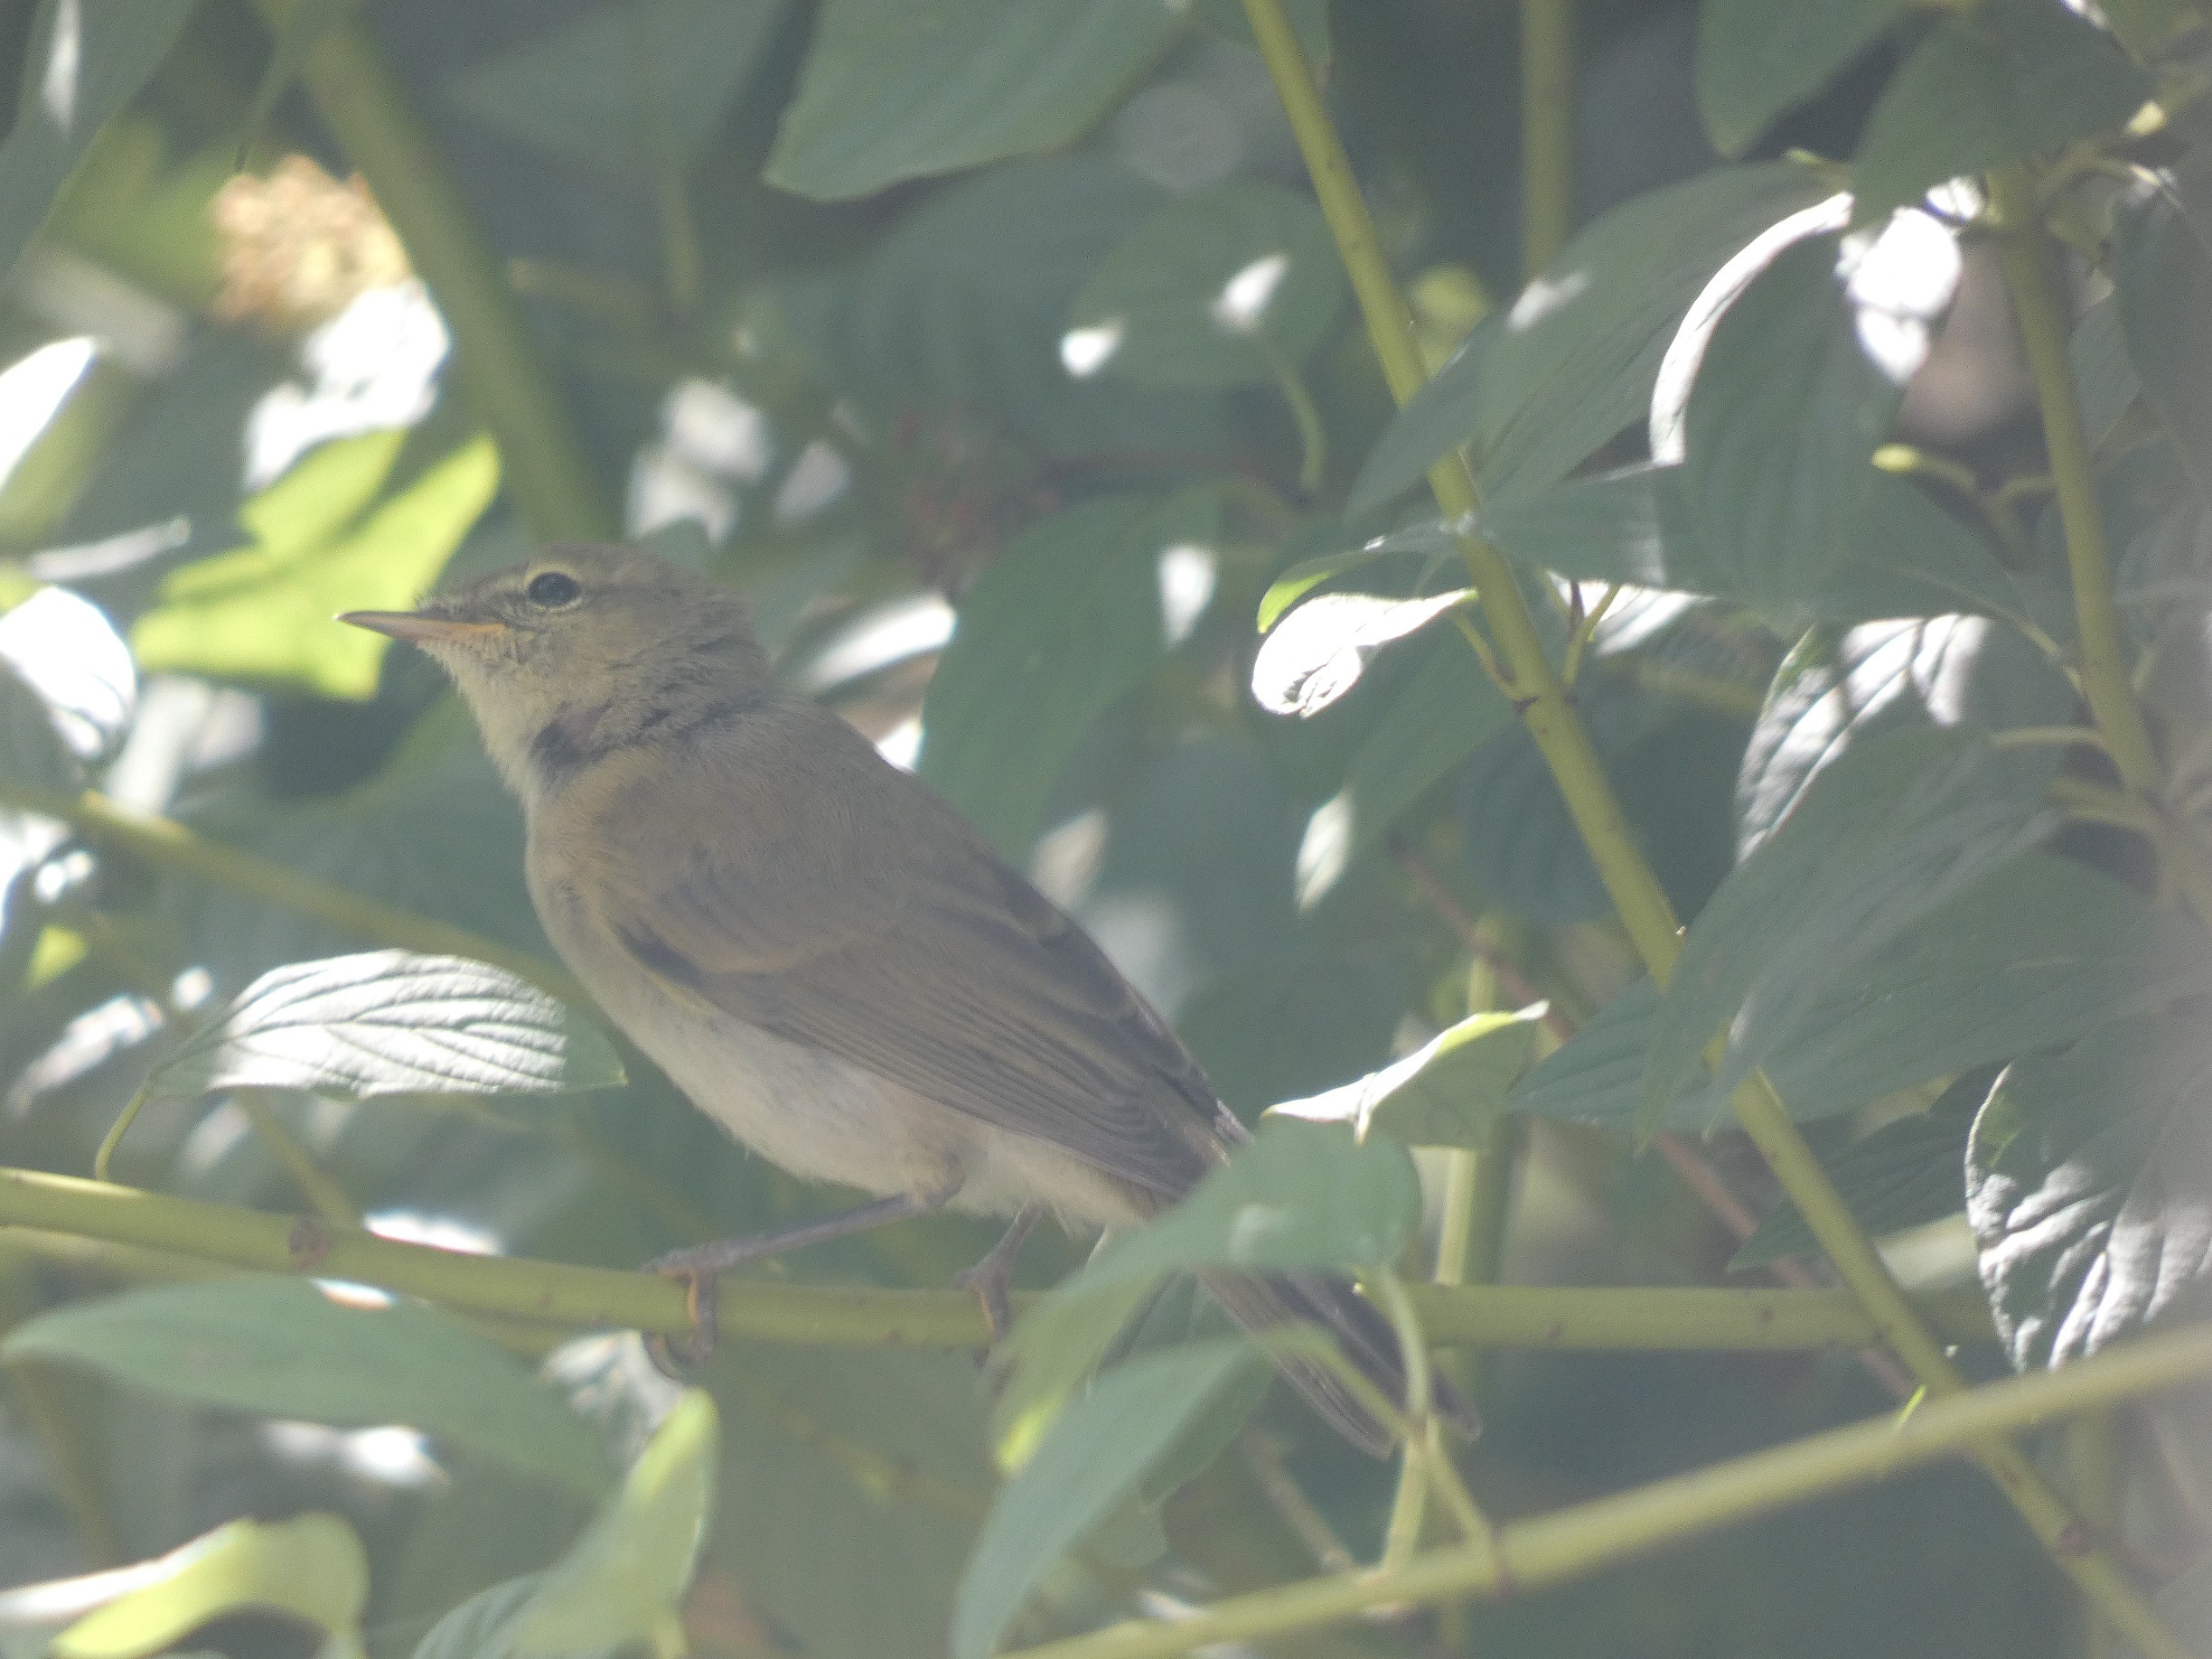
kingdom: Animalia
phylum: Chordata
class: Aves
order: Passeriformes
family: Phylloscopidae
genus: Phylloscopus
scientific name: Phylloscopus collybita
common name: Gransanger
